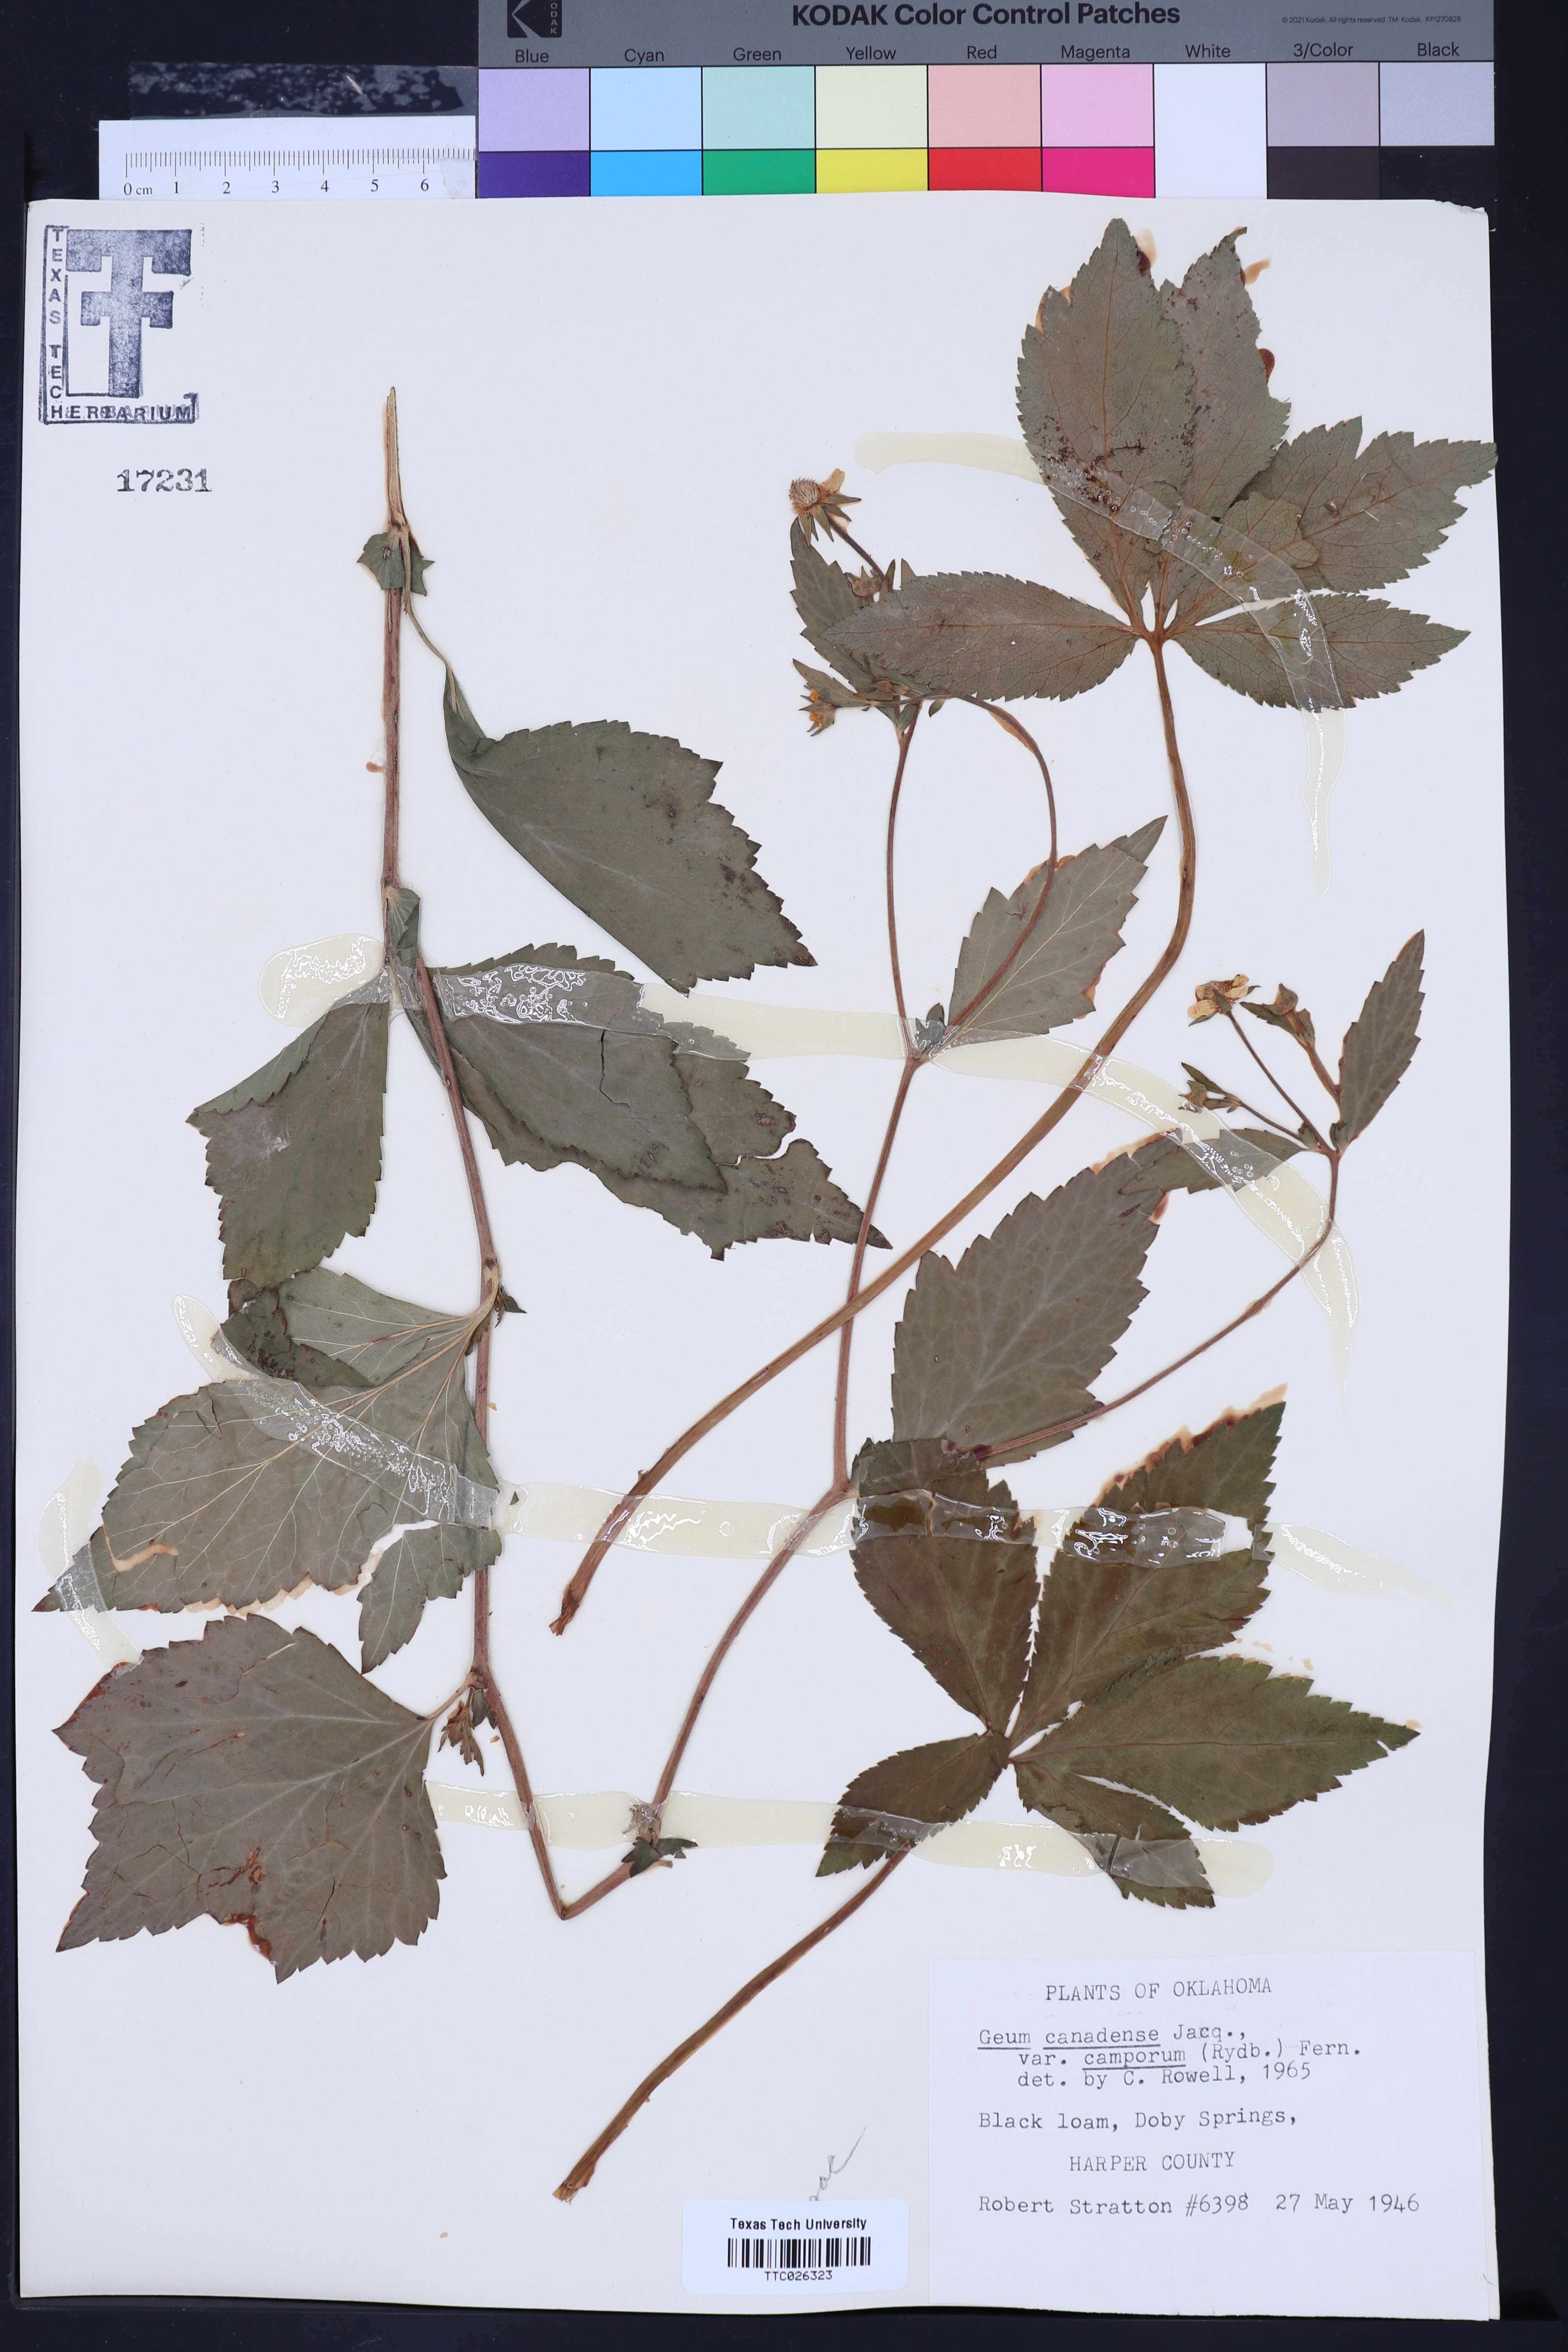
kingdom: Plantae
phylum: Tracheophyta
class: Magnoliopsida
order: Rosales
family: Rosaceae
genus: Geum
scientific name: Geum canadense
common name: White avens
